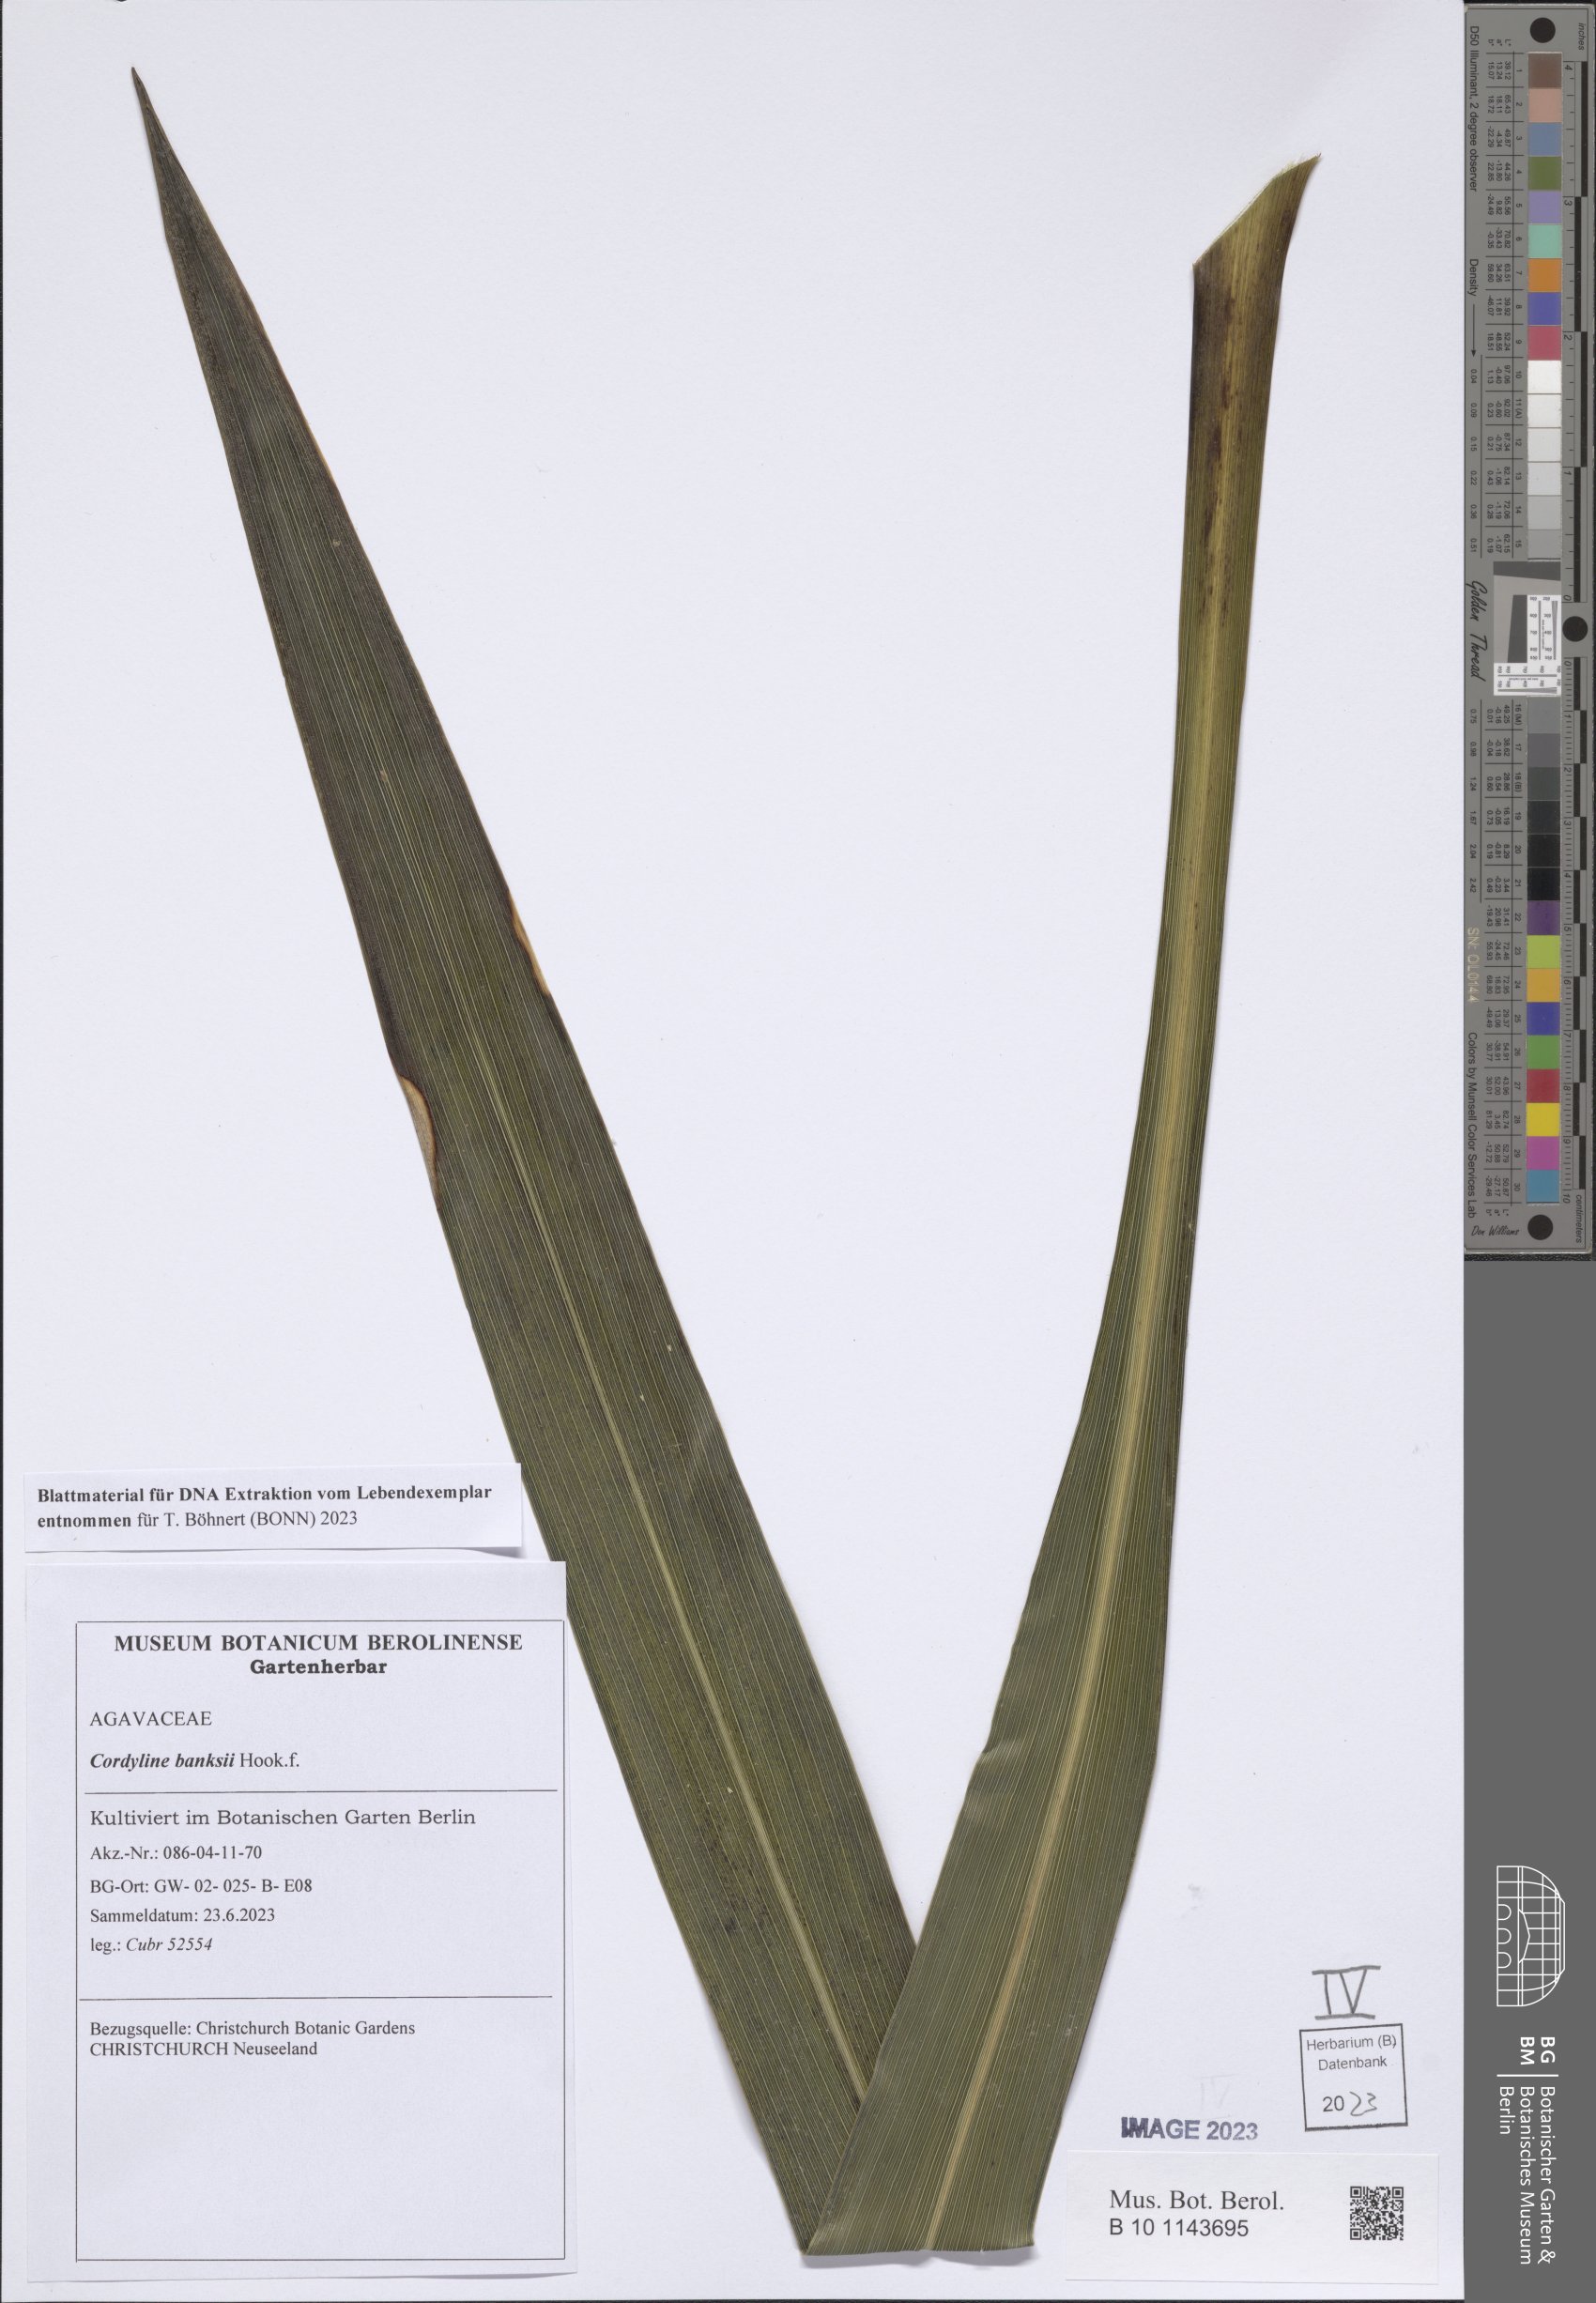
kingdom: Plantae
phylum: Tracheophyta
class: Liliopsida
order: Asparagales
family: Asparagaceae
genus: Cordyline
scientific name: Cordyline banksii
